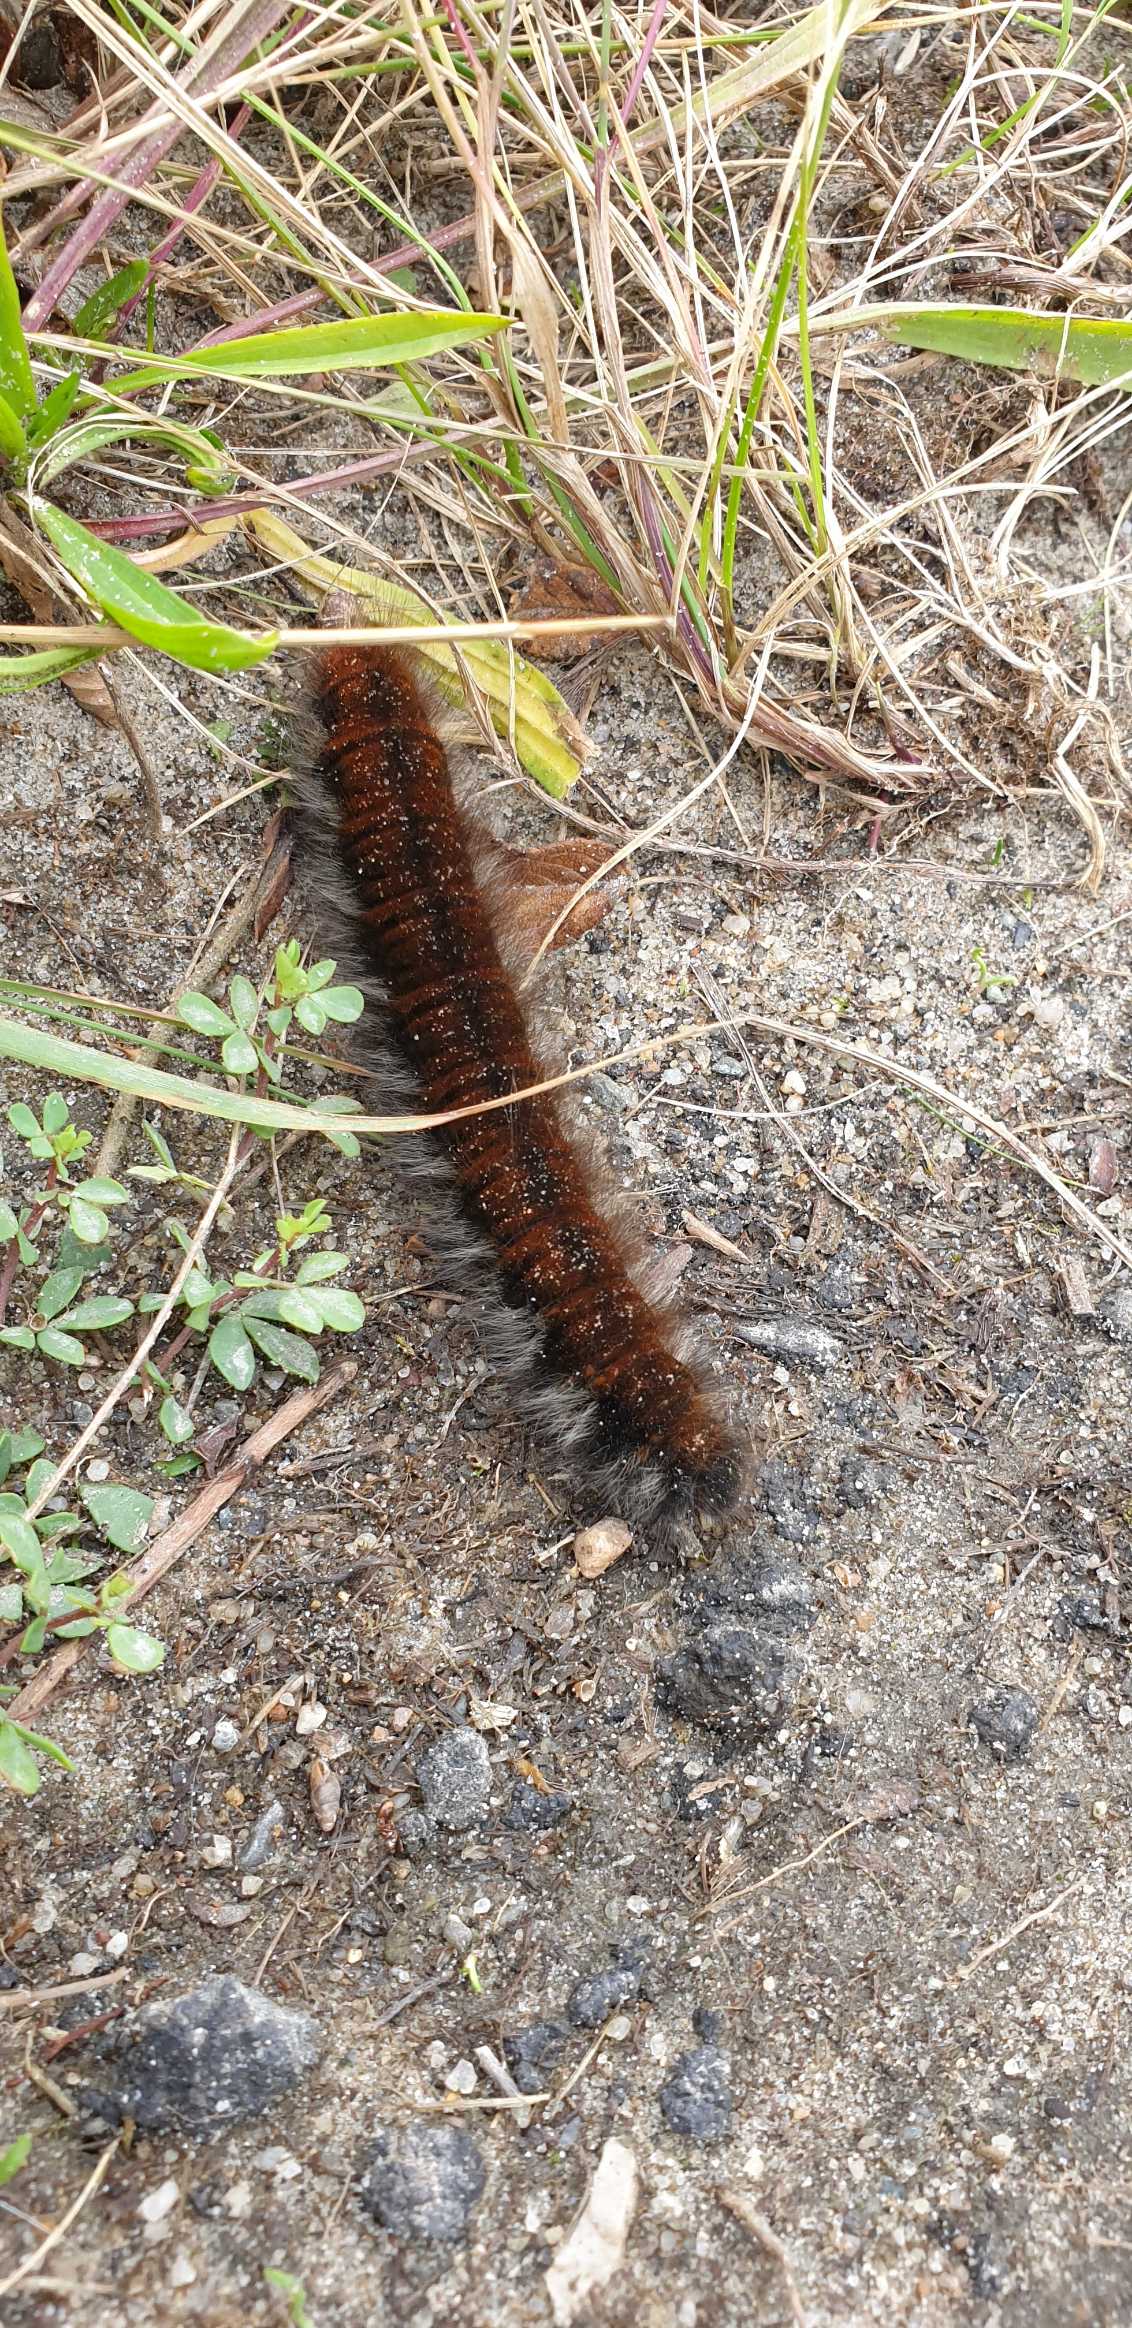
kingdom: Animalia
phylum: Arthropoda
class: Insecta
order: Lepidoptera
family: Lasiocampidae
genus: Macrothylacia
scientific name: Macrothylacia rubi
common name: Brombærspinder
